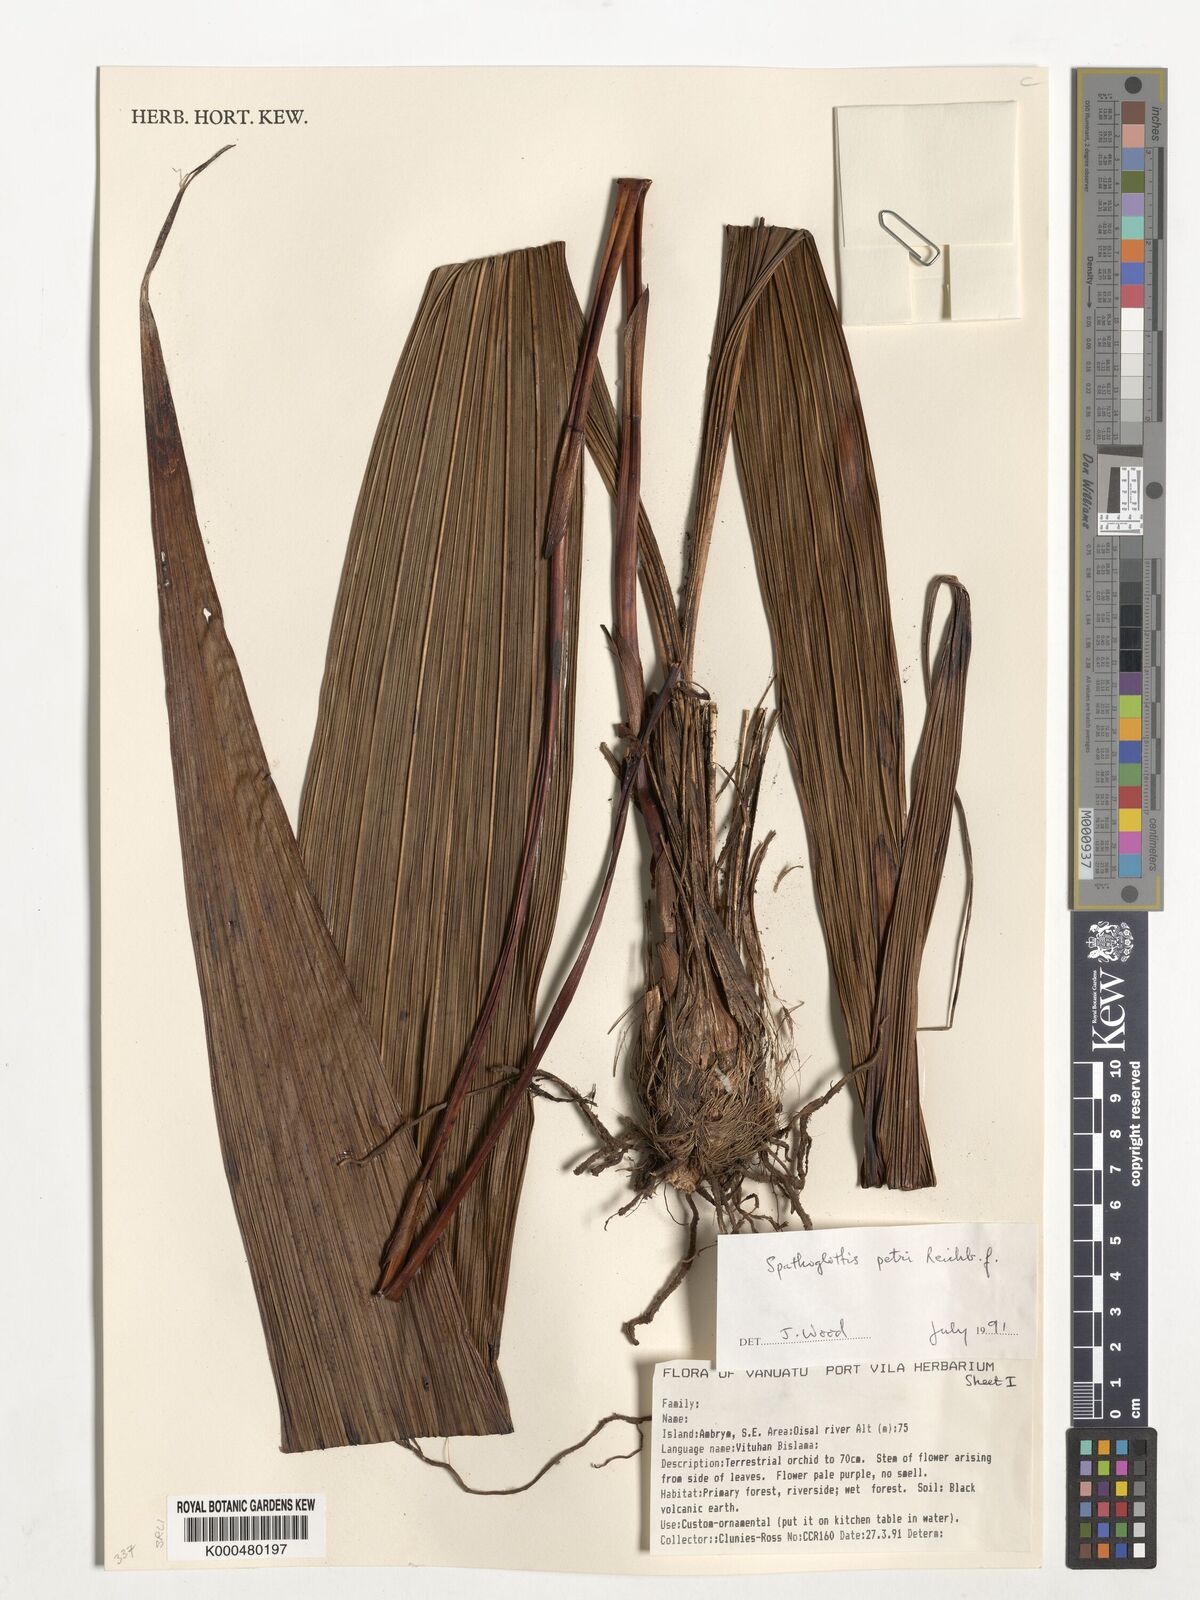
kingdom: Plantae
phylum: Tracheophyta
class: Liliopsida
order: Asparagales
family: Orchidaceae
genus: Spathoglottis
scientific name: Spathoglottis petri
